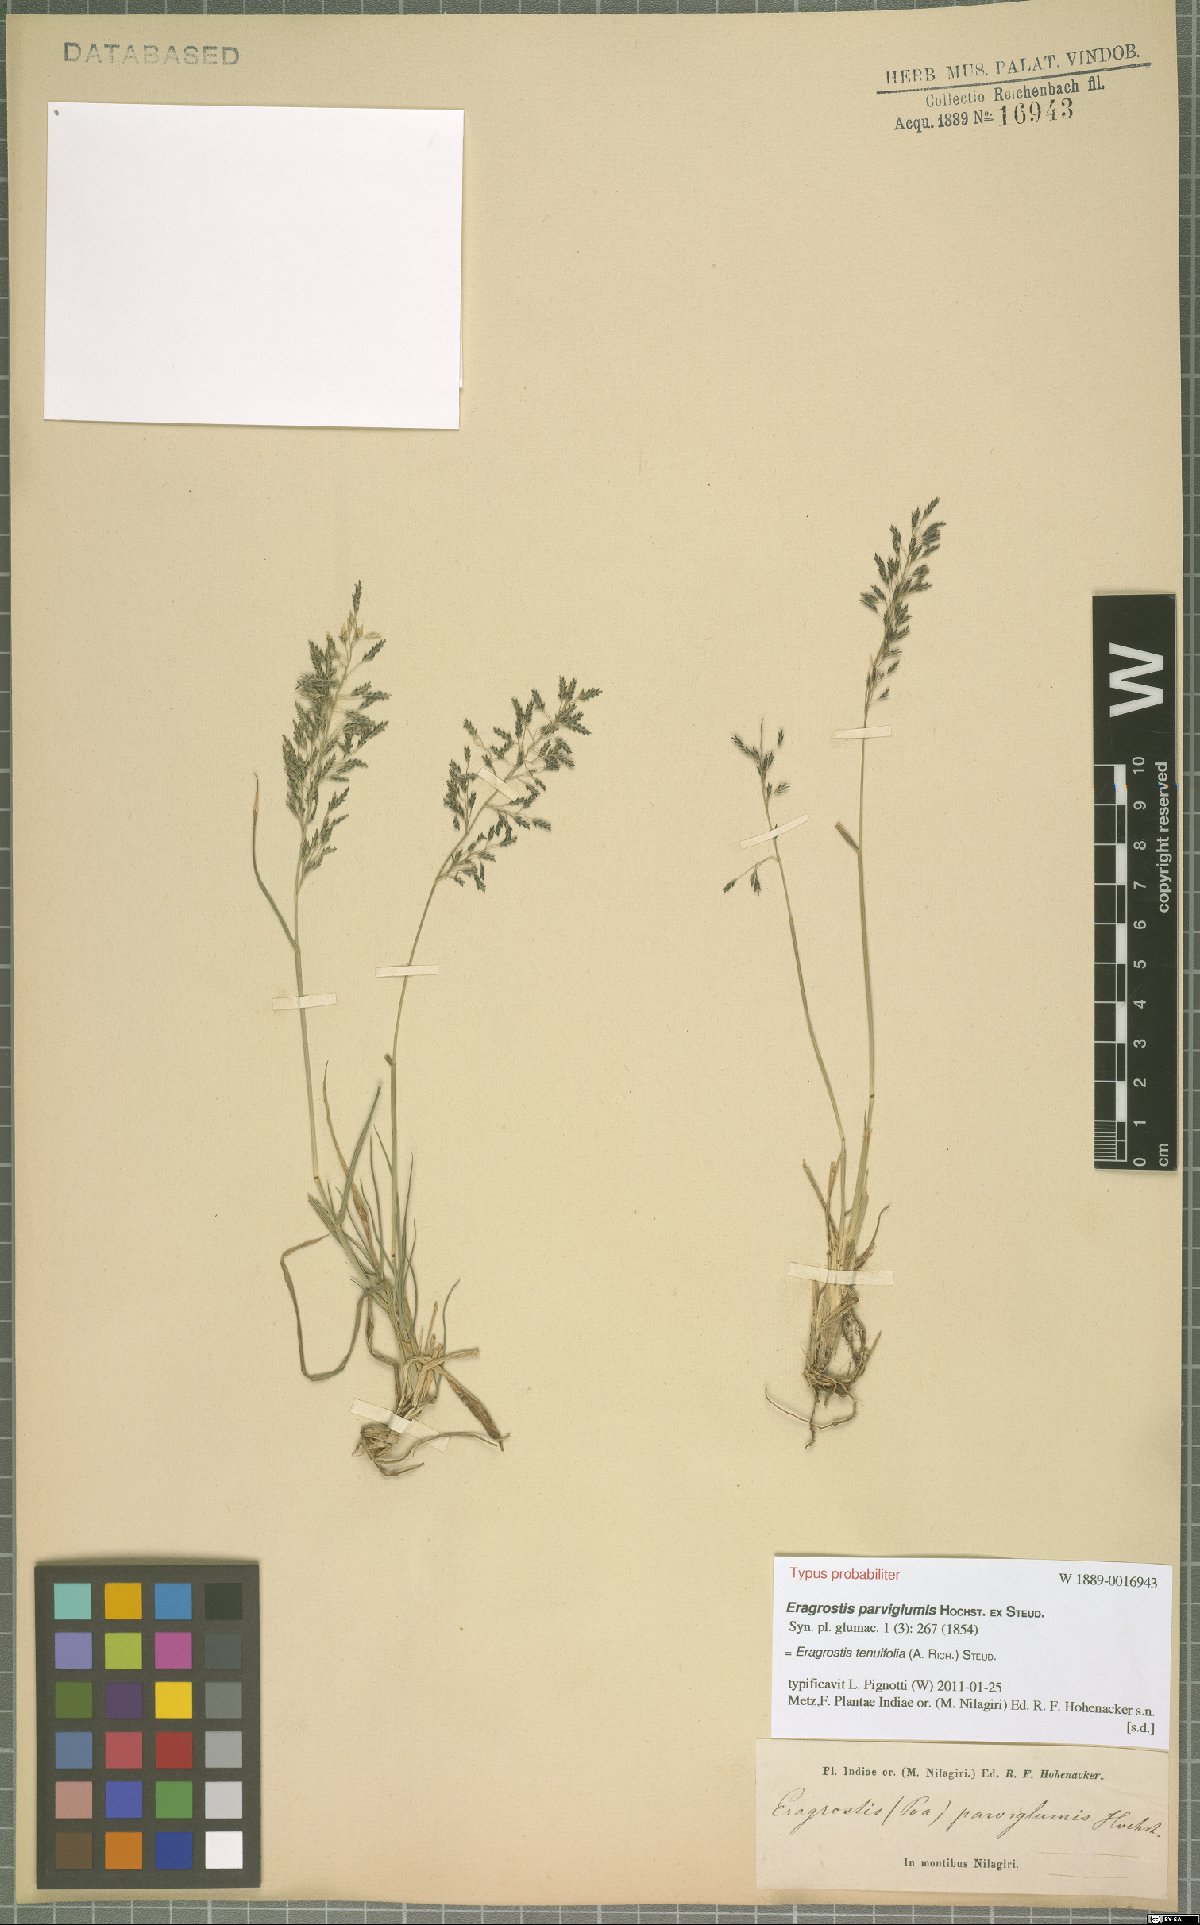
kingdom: Plantae
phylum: Tracheophyta
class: Liliopsida
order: Poales
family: Poaceae
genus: Eragrostis
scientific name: Eragrostis tenuifolia
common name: Elastic grass
